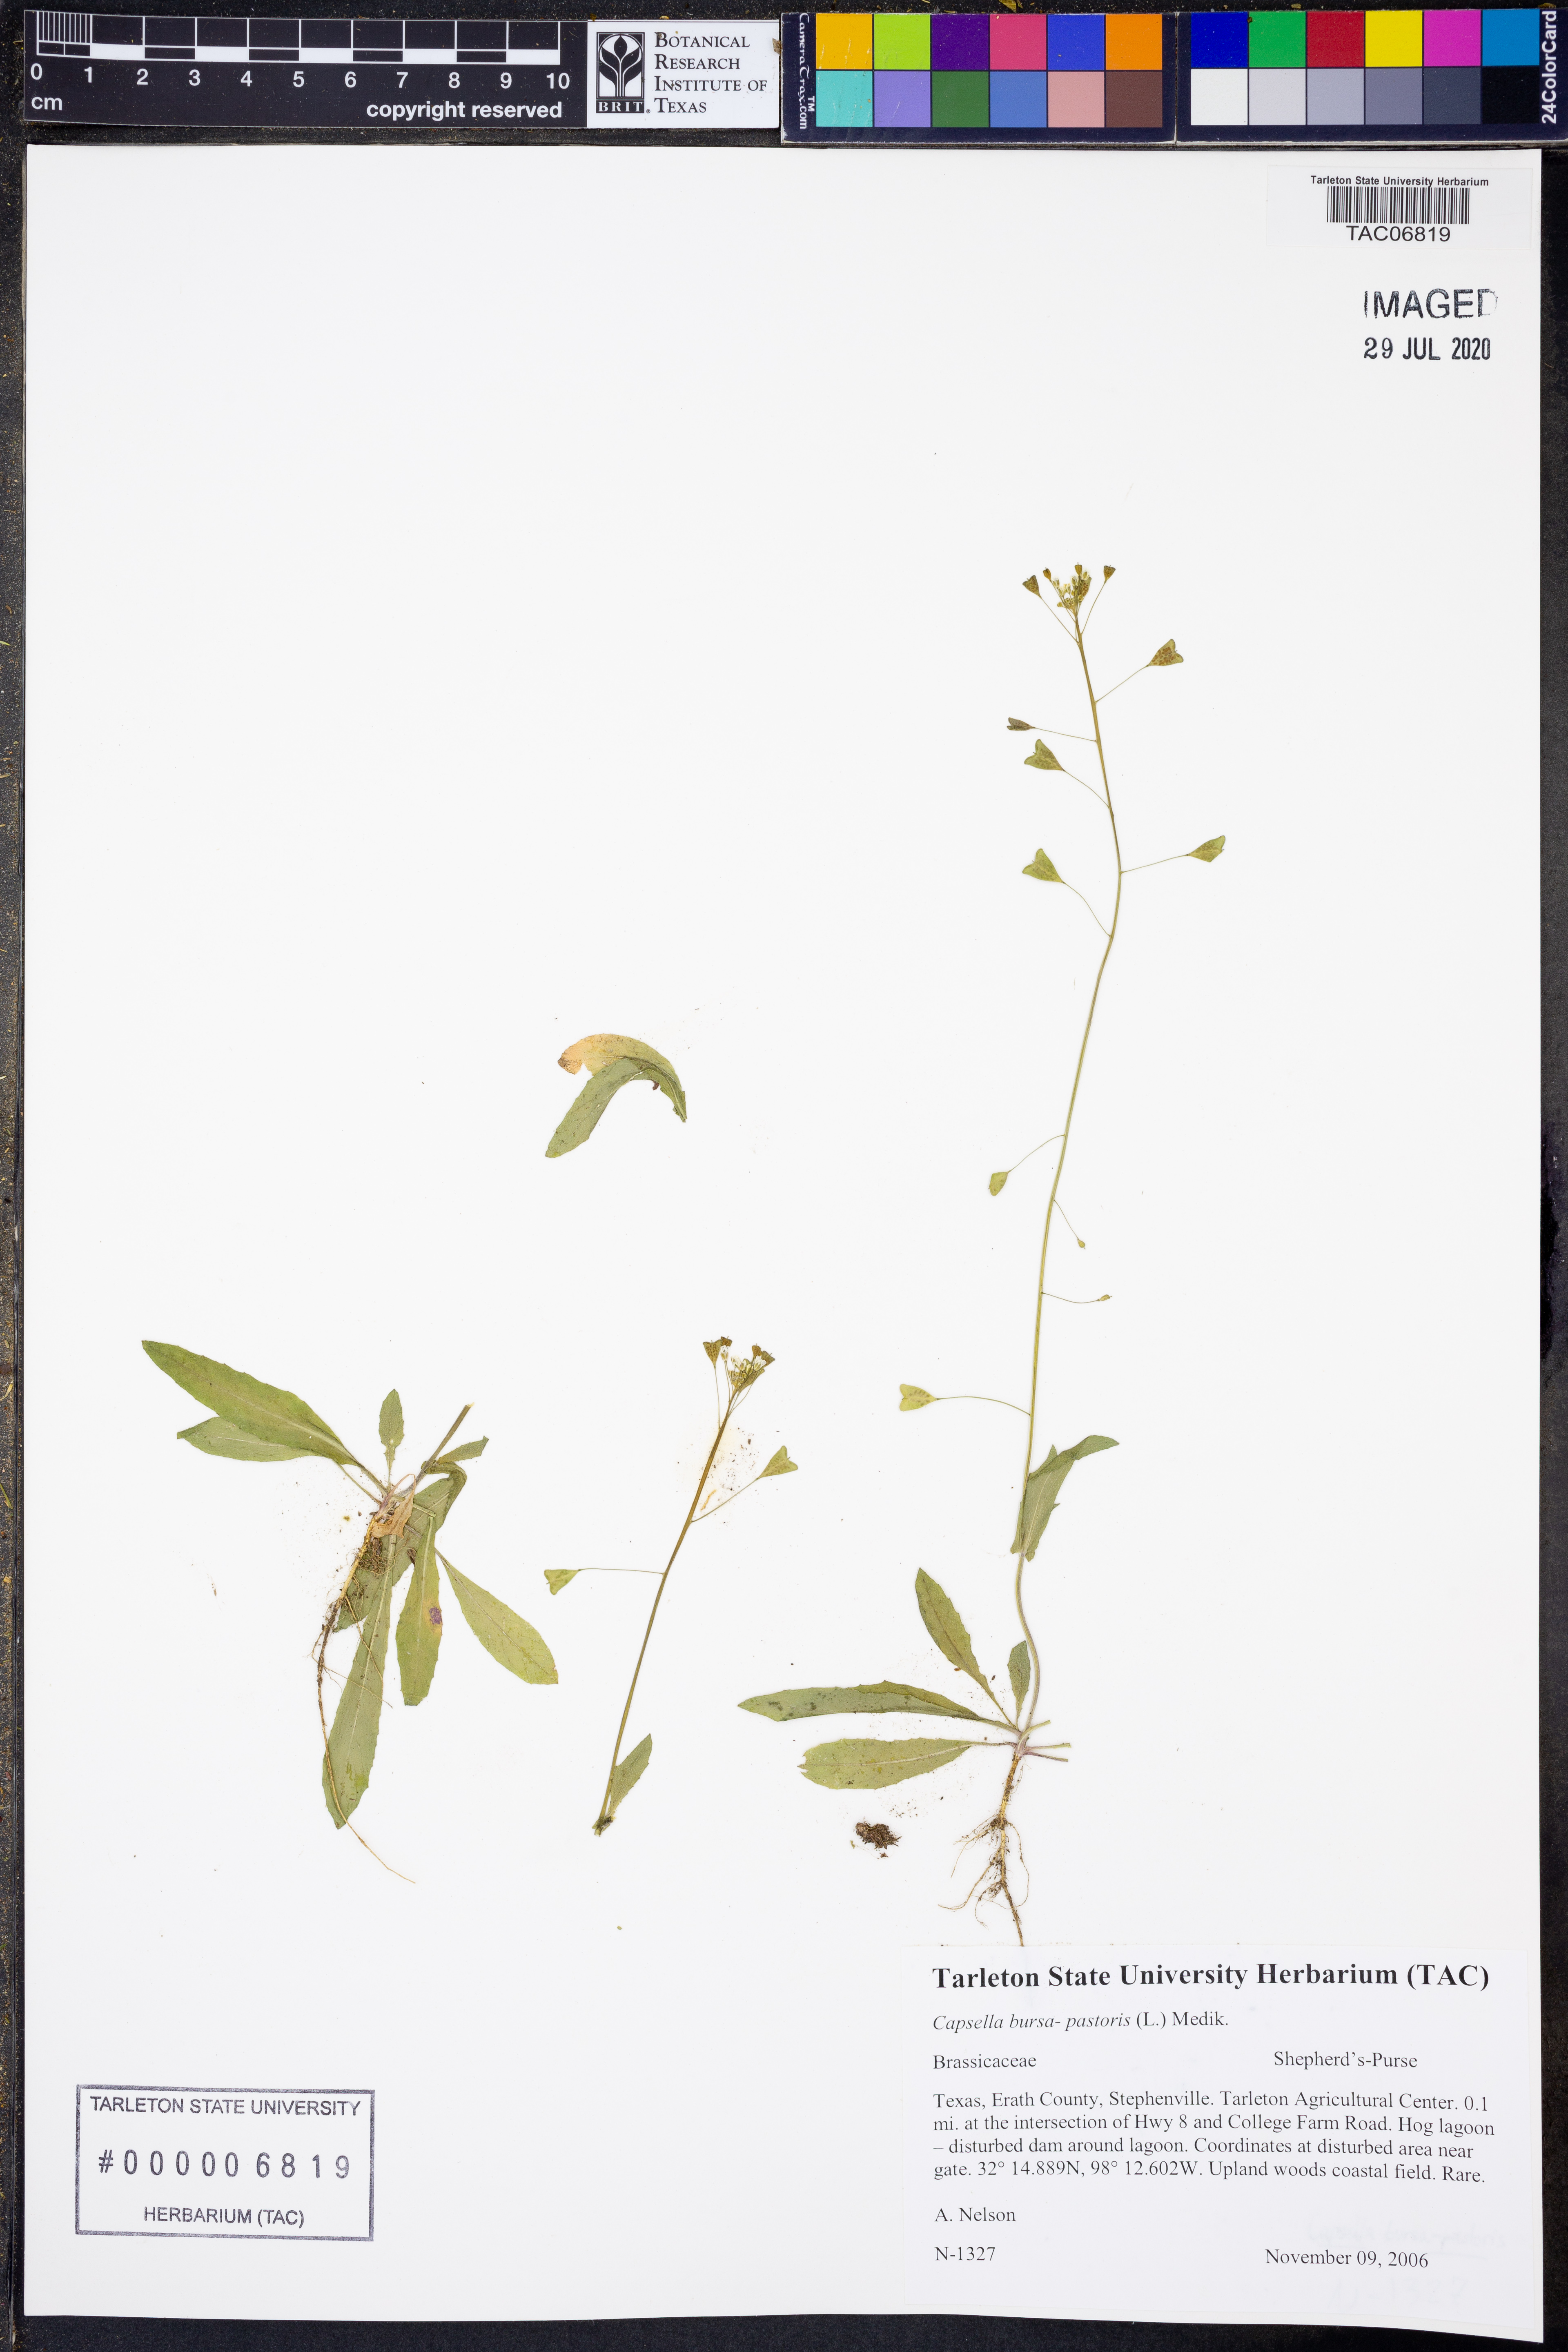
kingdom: Plantae
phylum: Tracheophyta
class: Magnoliopsida
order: Brassicales
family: Brassicaceae
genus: Capsella
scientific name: Capsella bursa-pastoris
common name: Shepherd's purse
